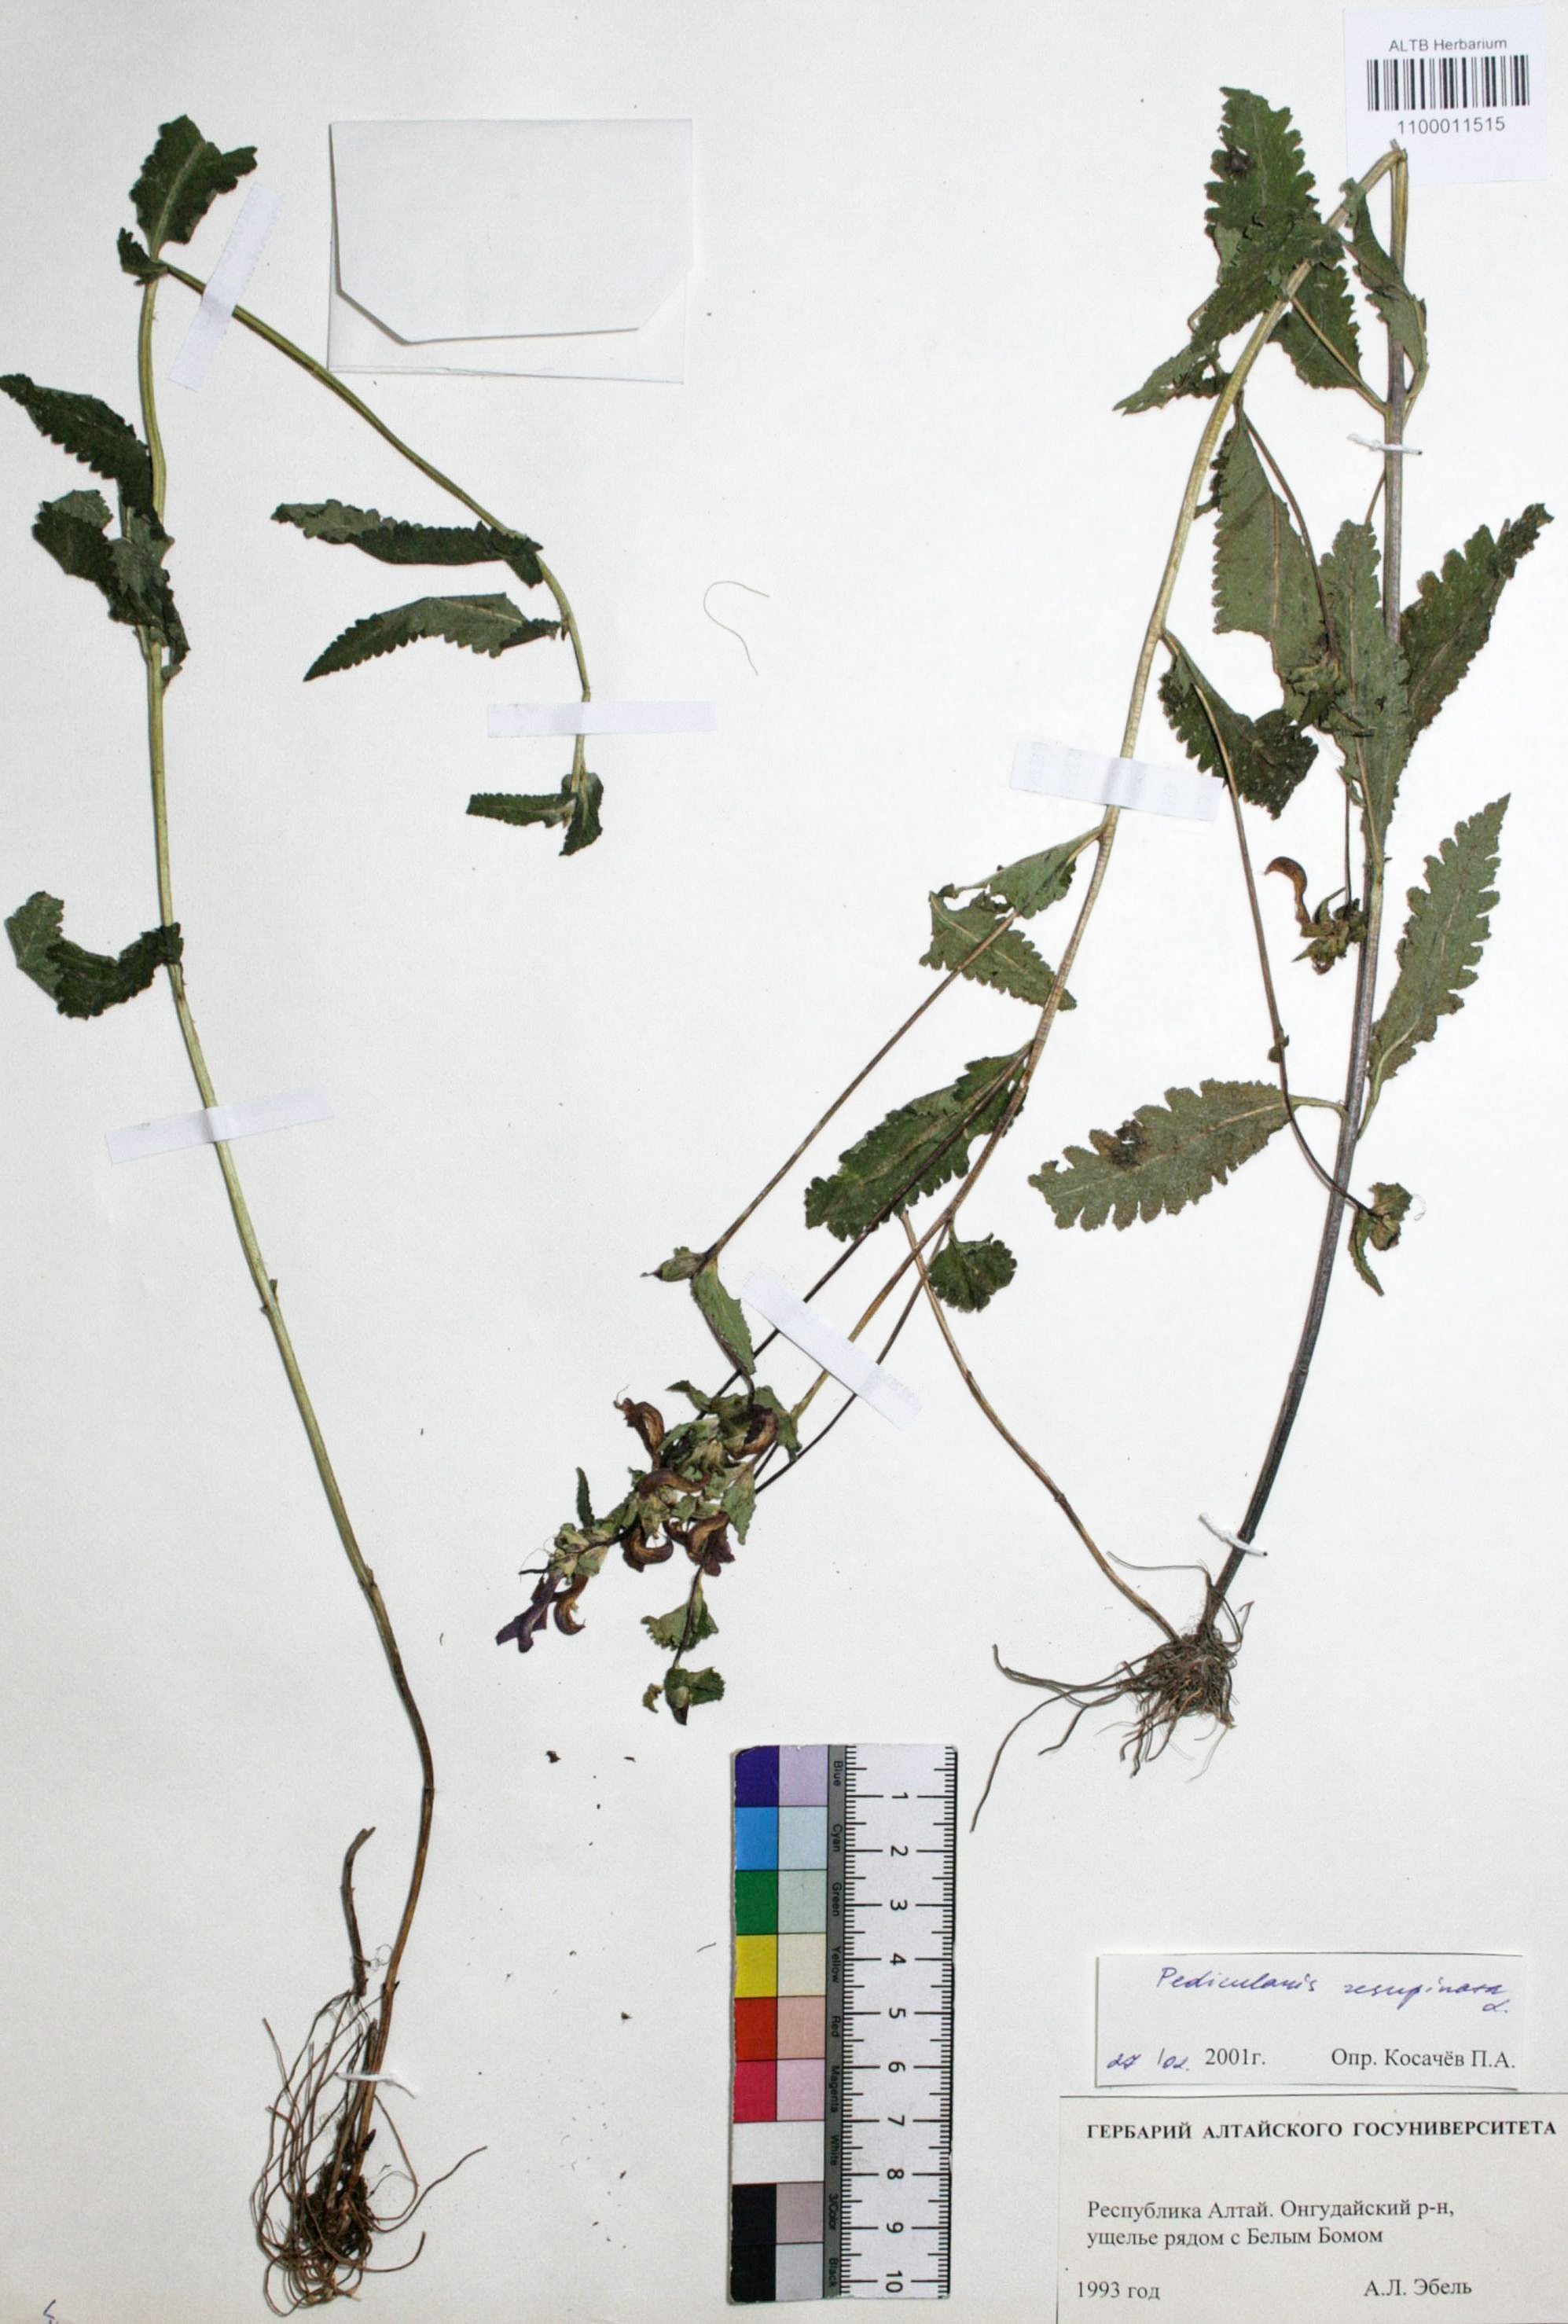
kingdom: Plantae
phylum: Tracheophyta
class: Magnoliopsida
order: Lamiales
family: Orobanchaceae
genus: Pedicularis
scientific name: Pedicularis resupinata
